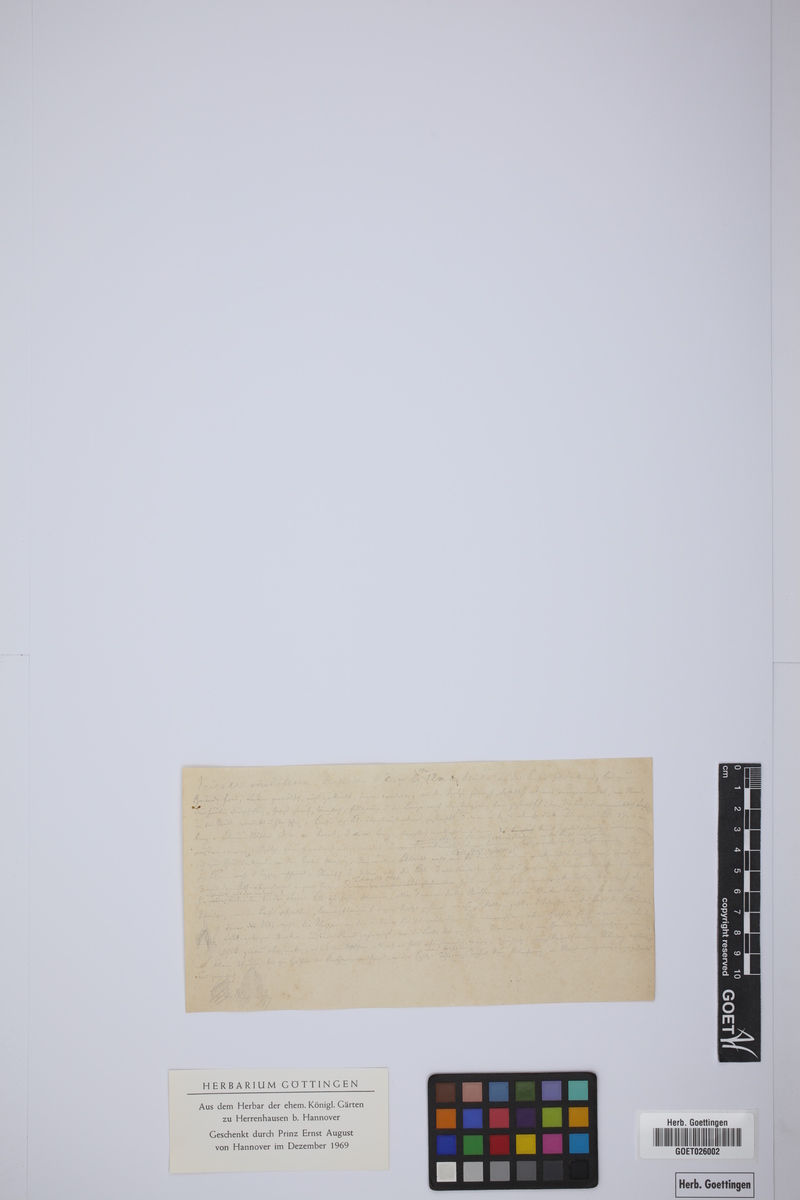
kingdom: Plantae
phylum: Tracheophyta
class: Liliopsida
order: Arecales
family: Arecaceae
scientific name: Arecaceae
